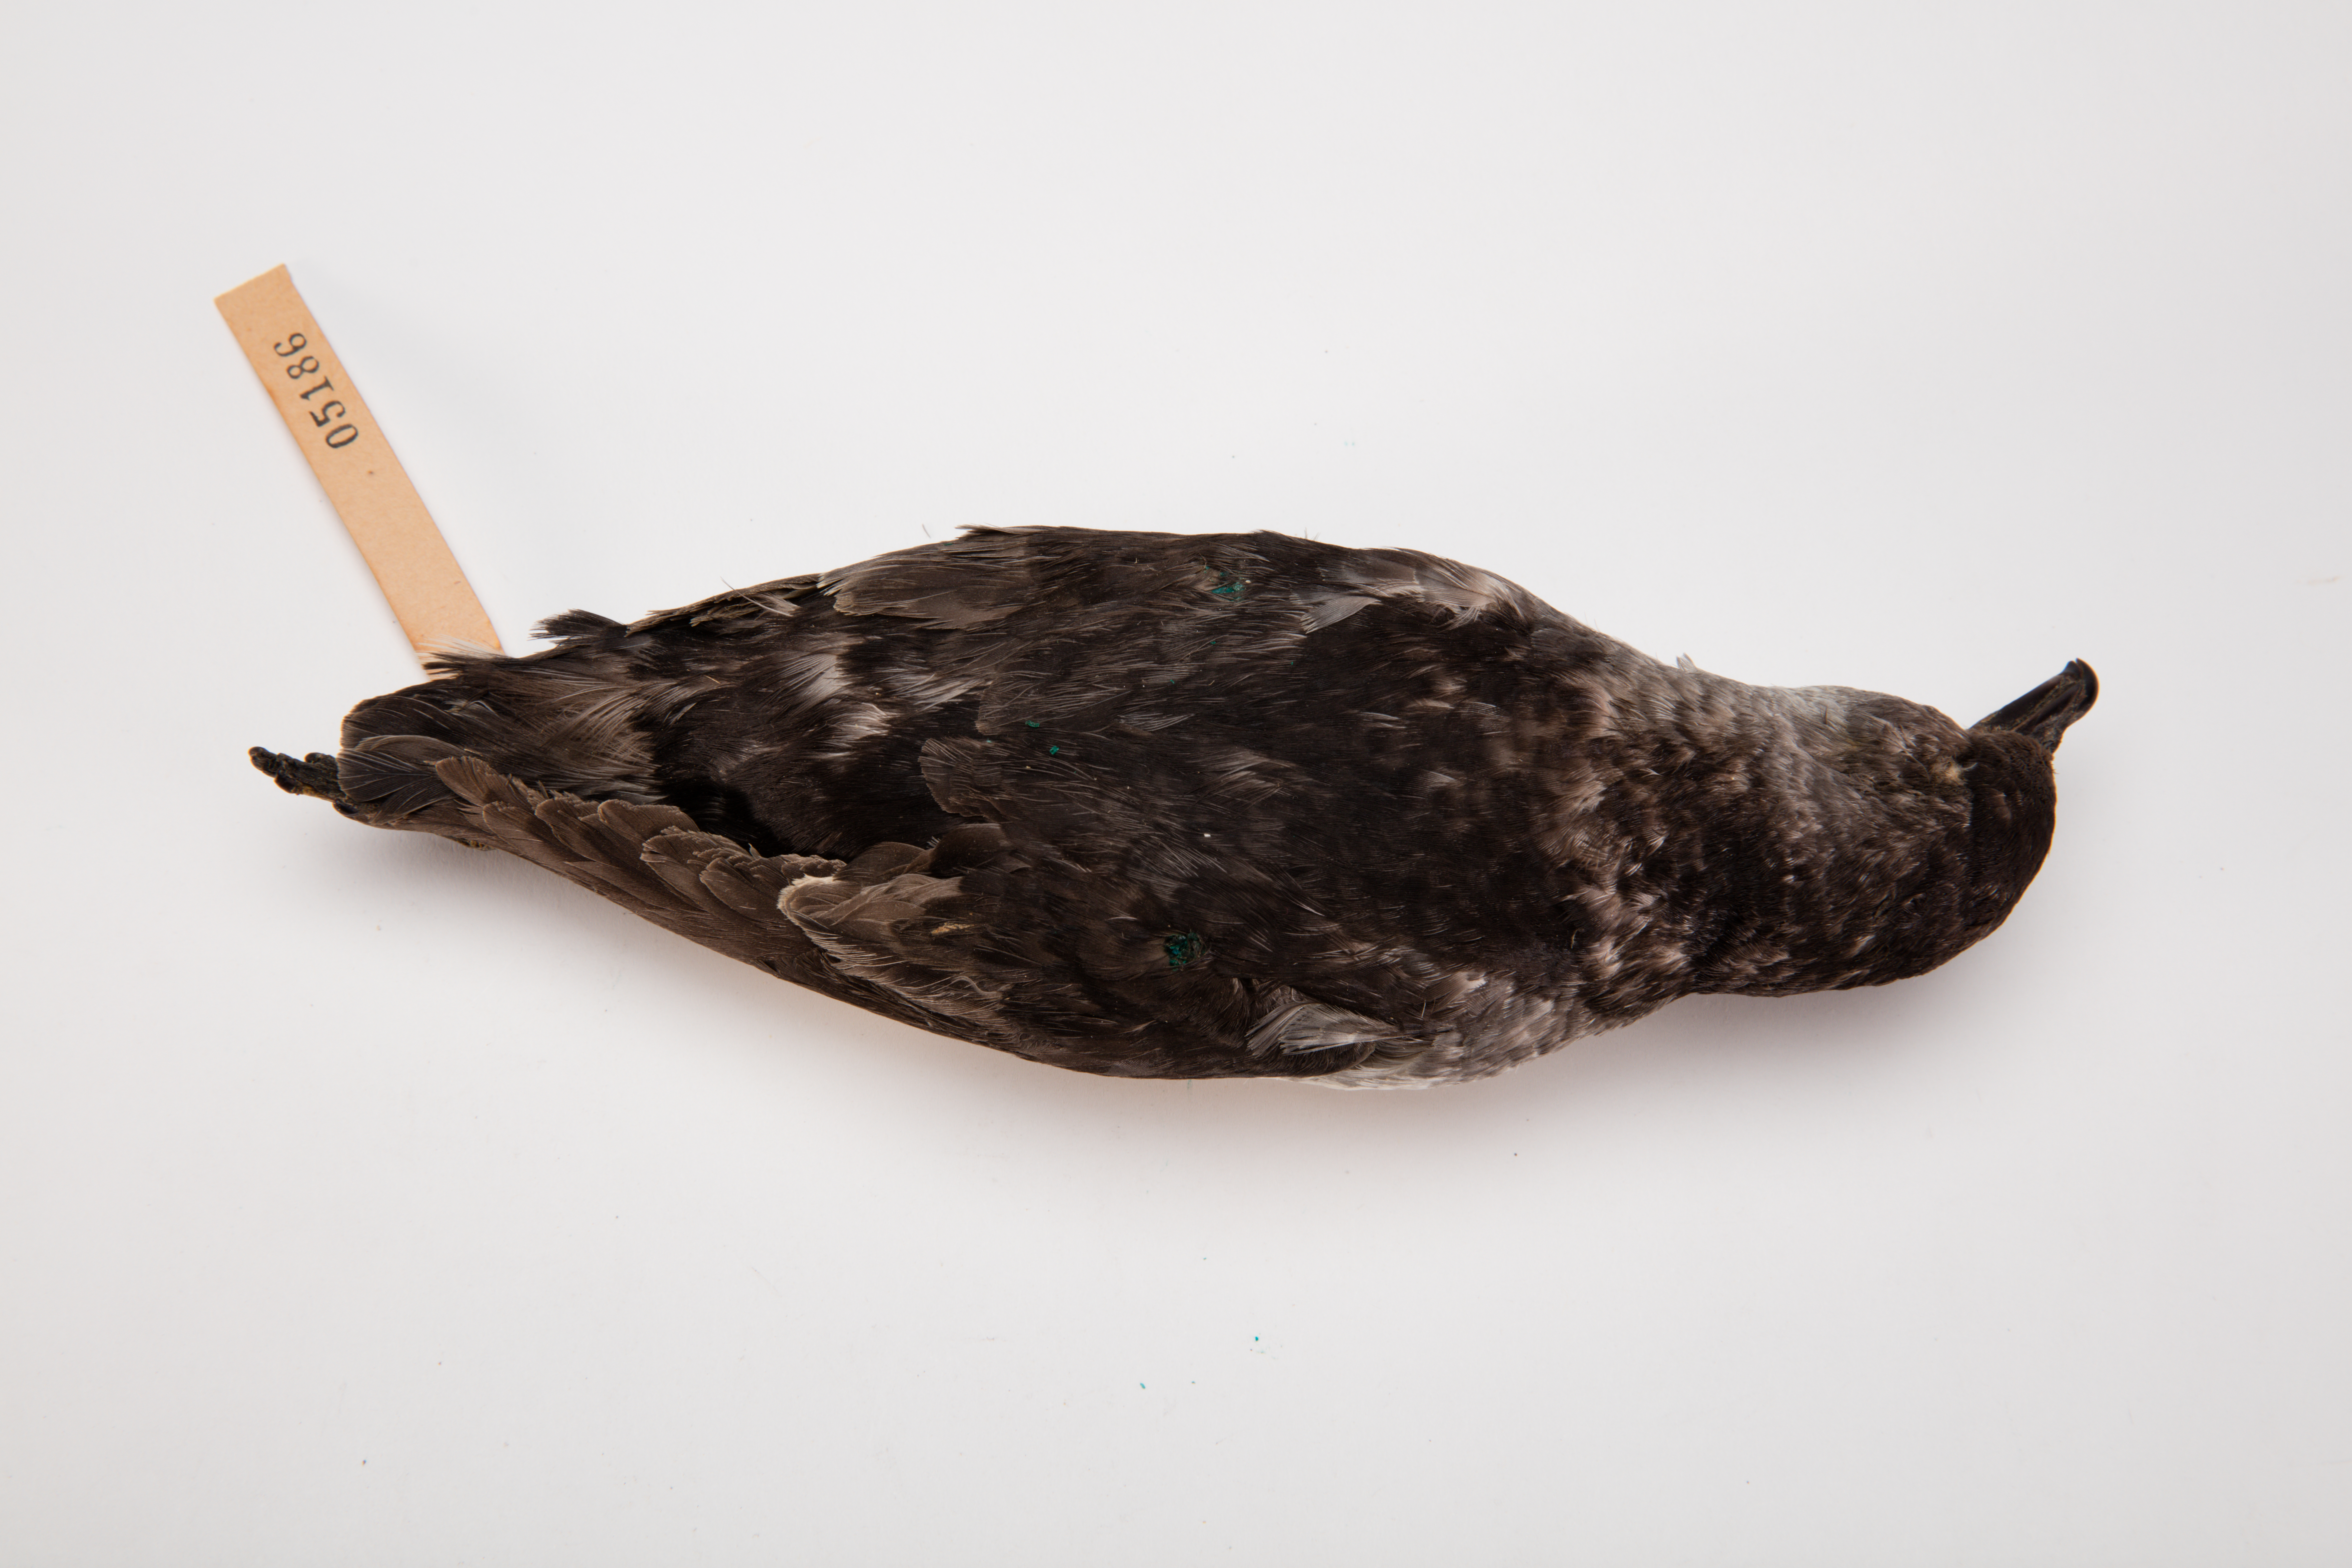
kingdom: Animalia
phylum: Chordata
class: Aves
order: Procellariiformes
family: Pelecanoididae
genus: Pelecanoides
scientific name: Pelecanoides urinatrix
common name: Common diving-petrel
